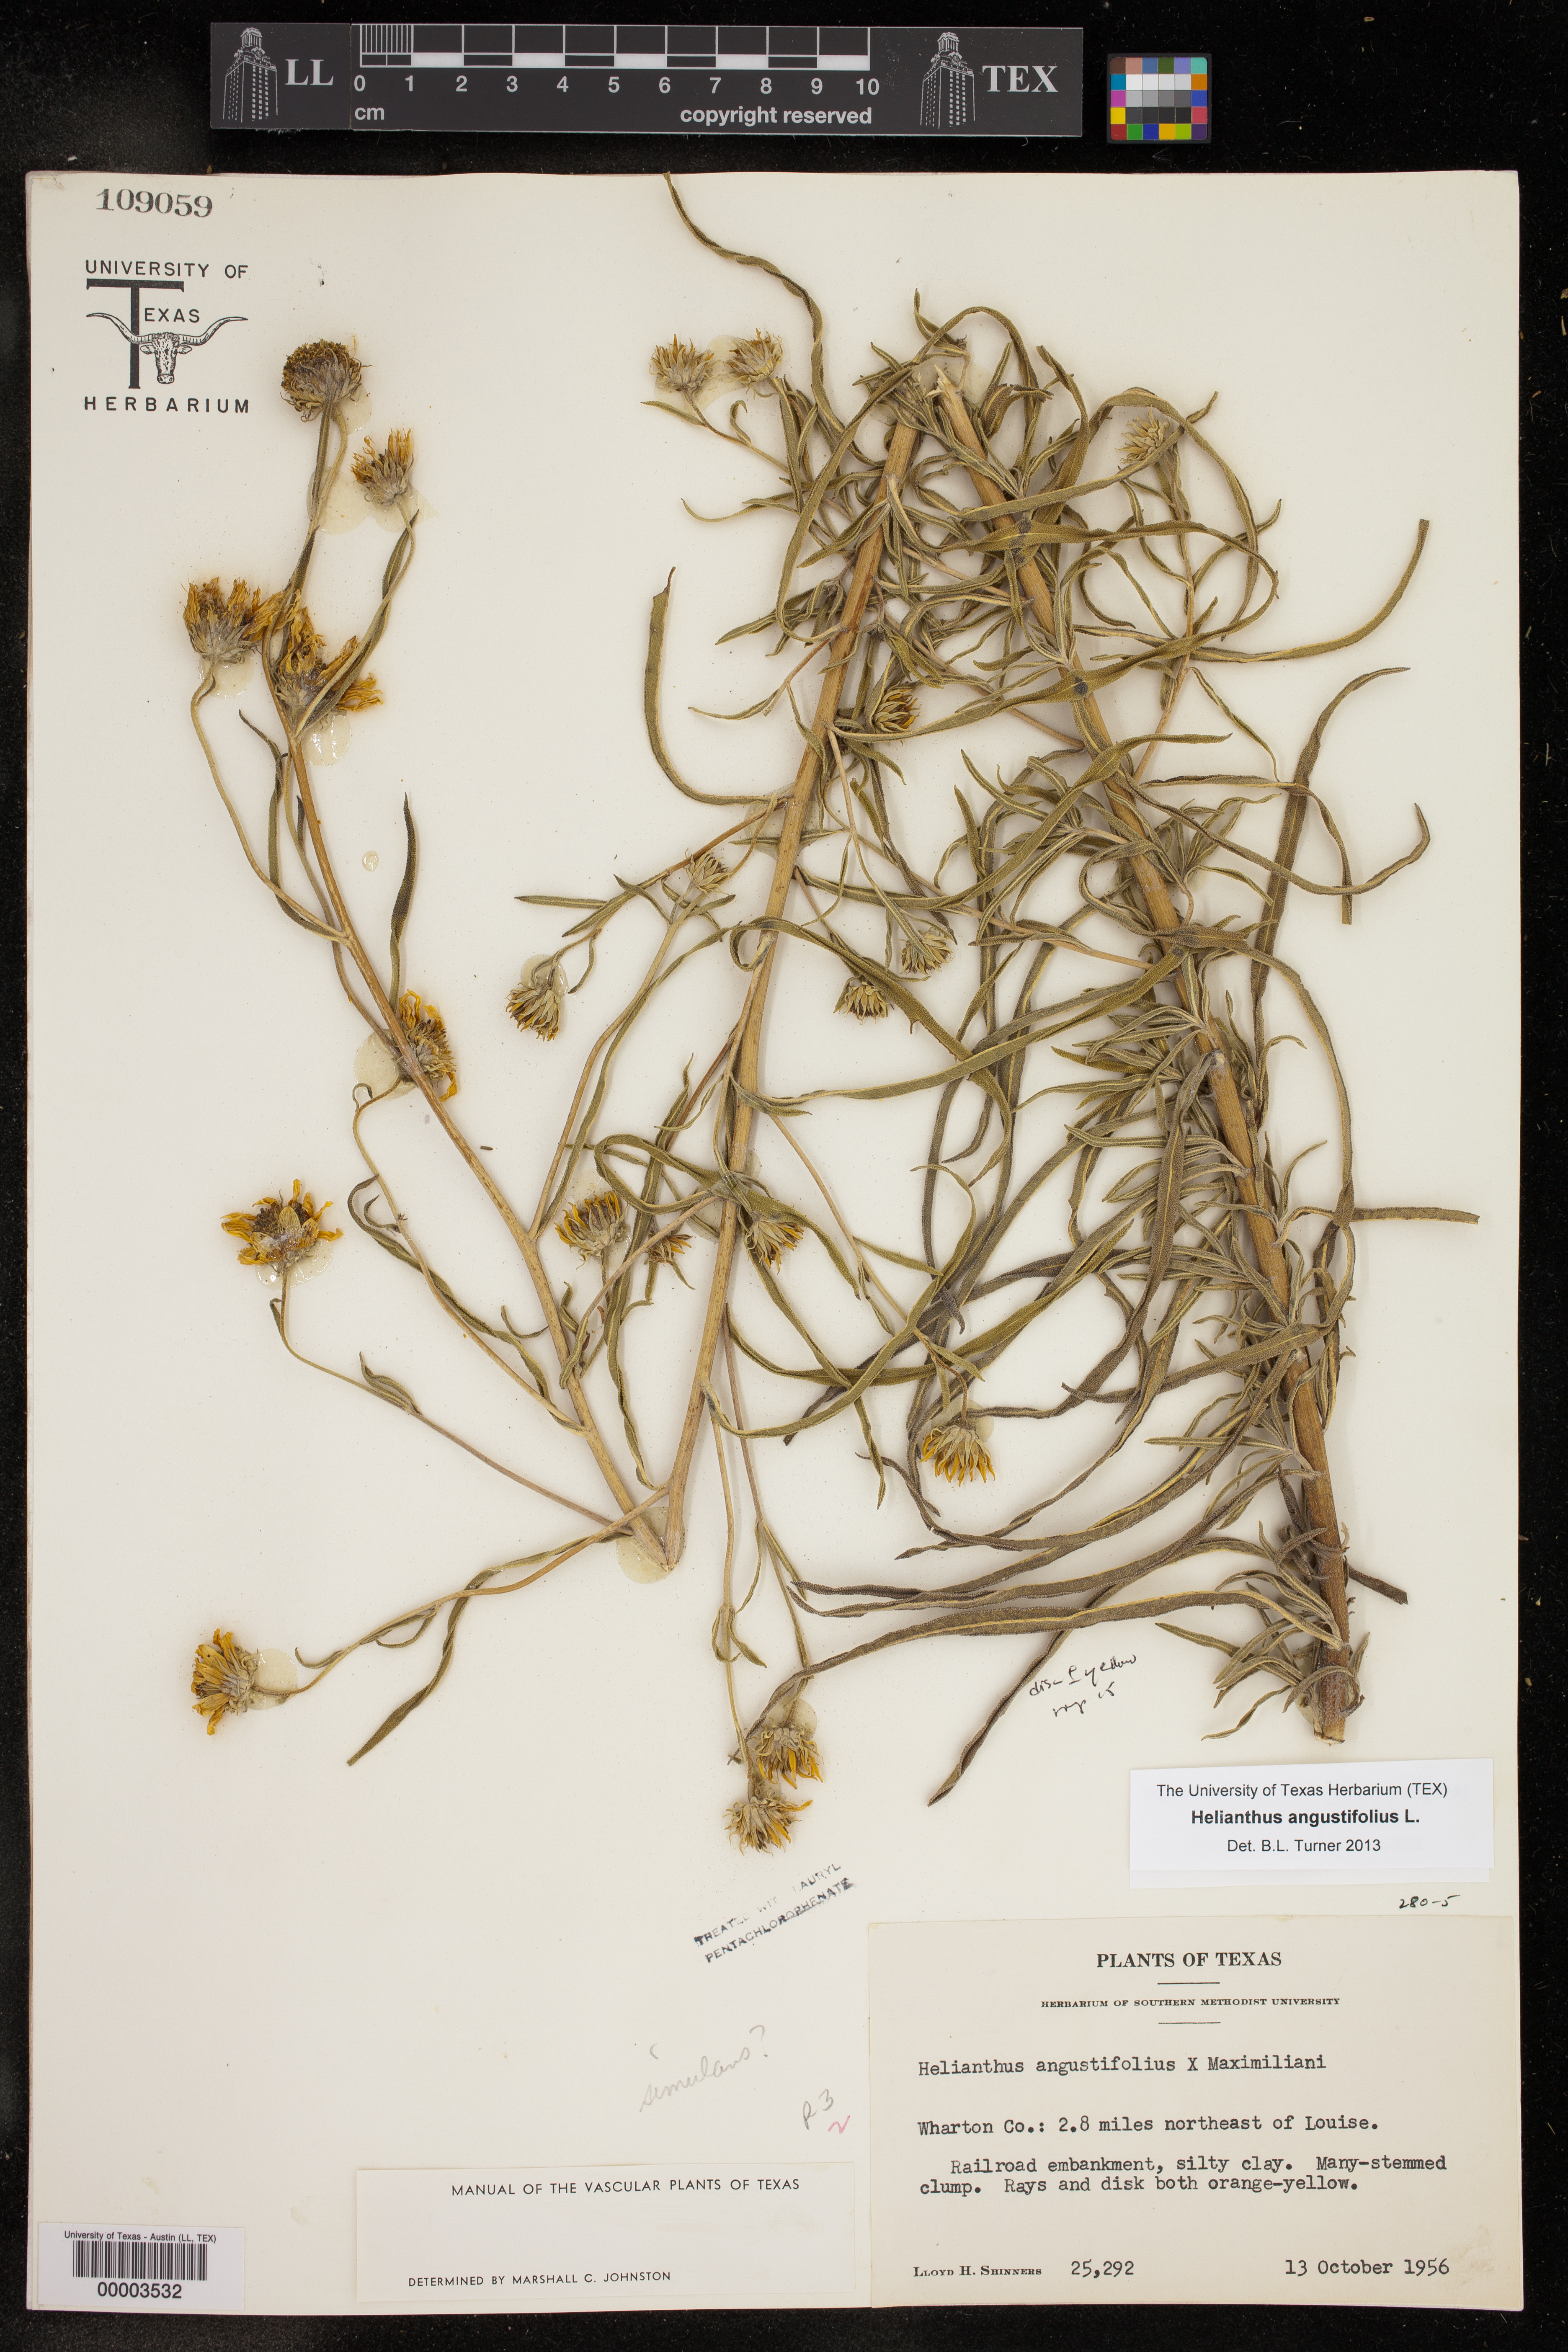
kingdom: Plantae
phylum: Tracheophyta
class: Magnoliopsida
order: Asterales
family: Asteraceae
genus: Helianthus
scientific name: Helianthus angustifolius
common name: Swamp sunflower
